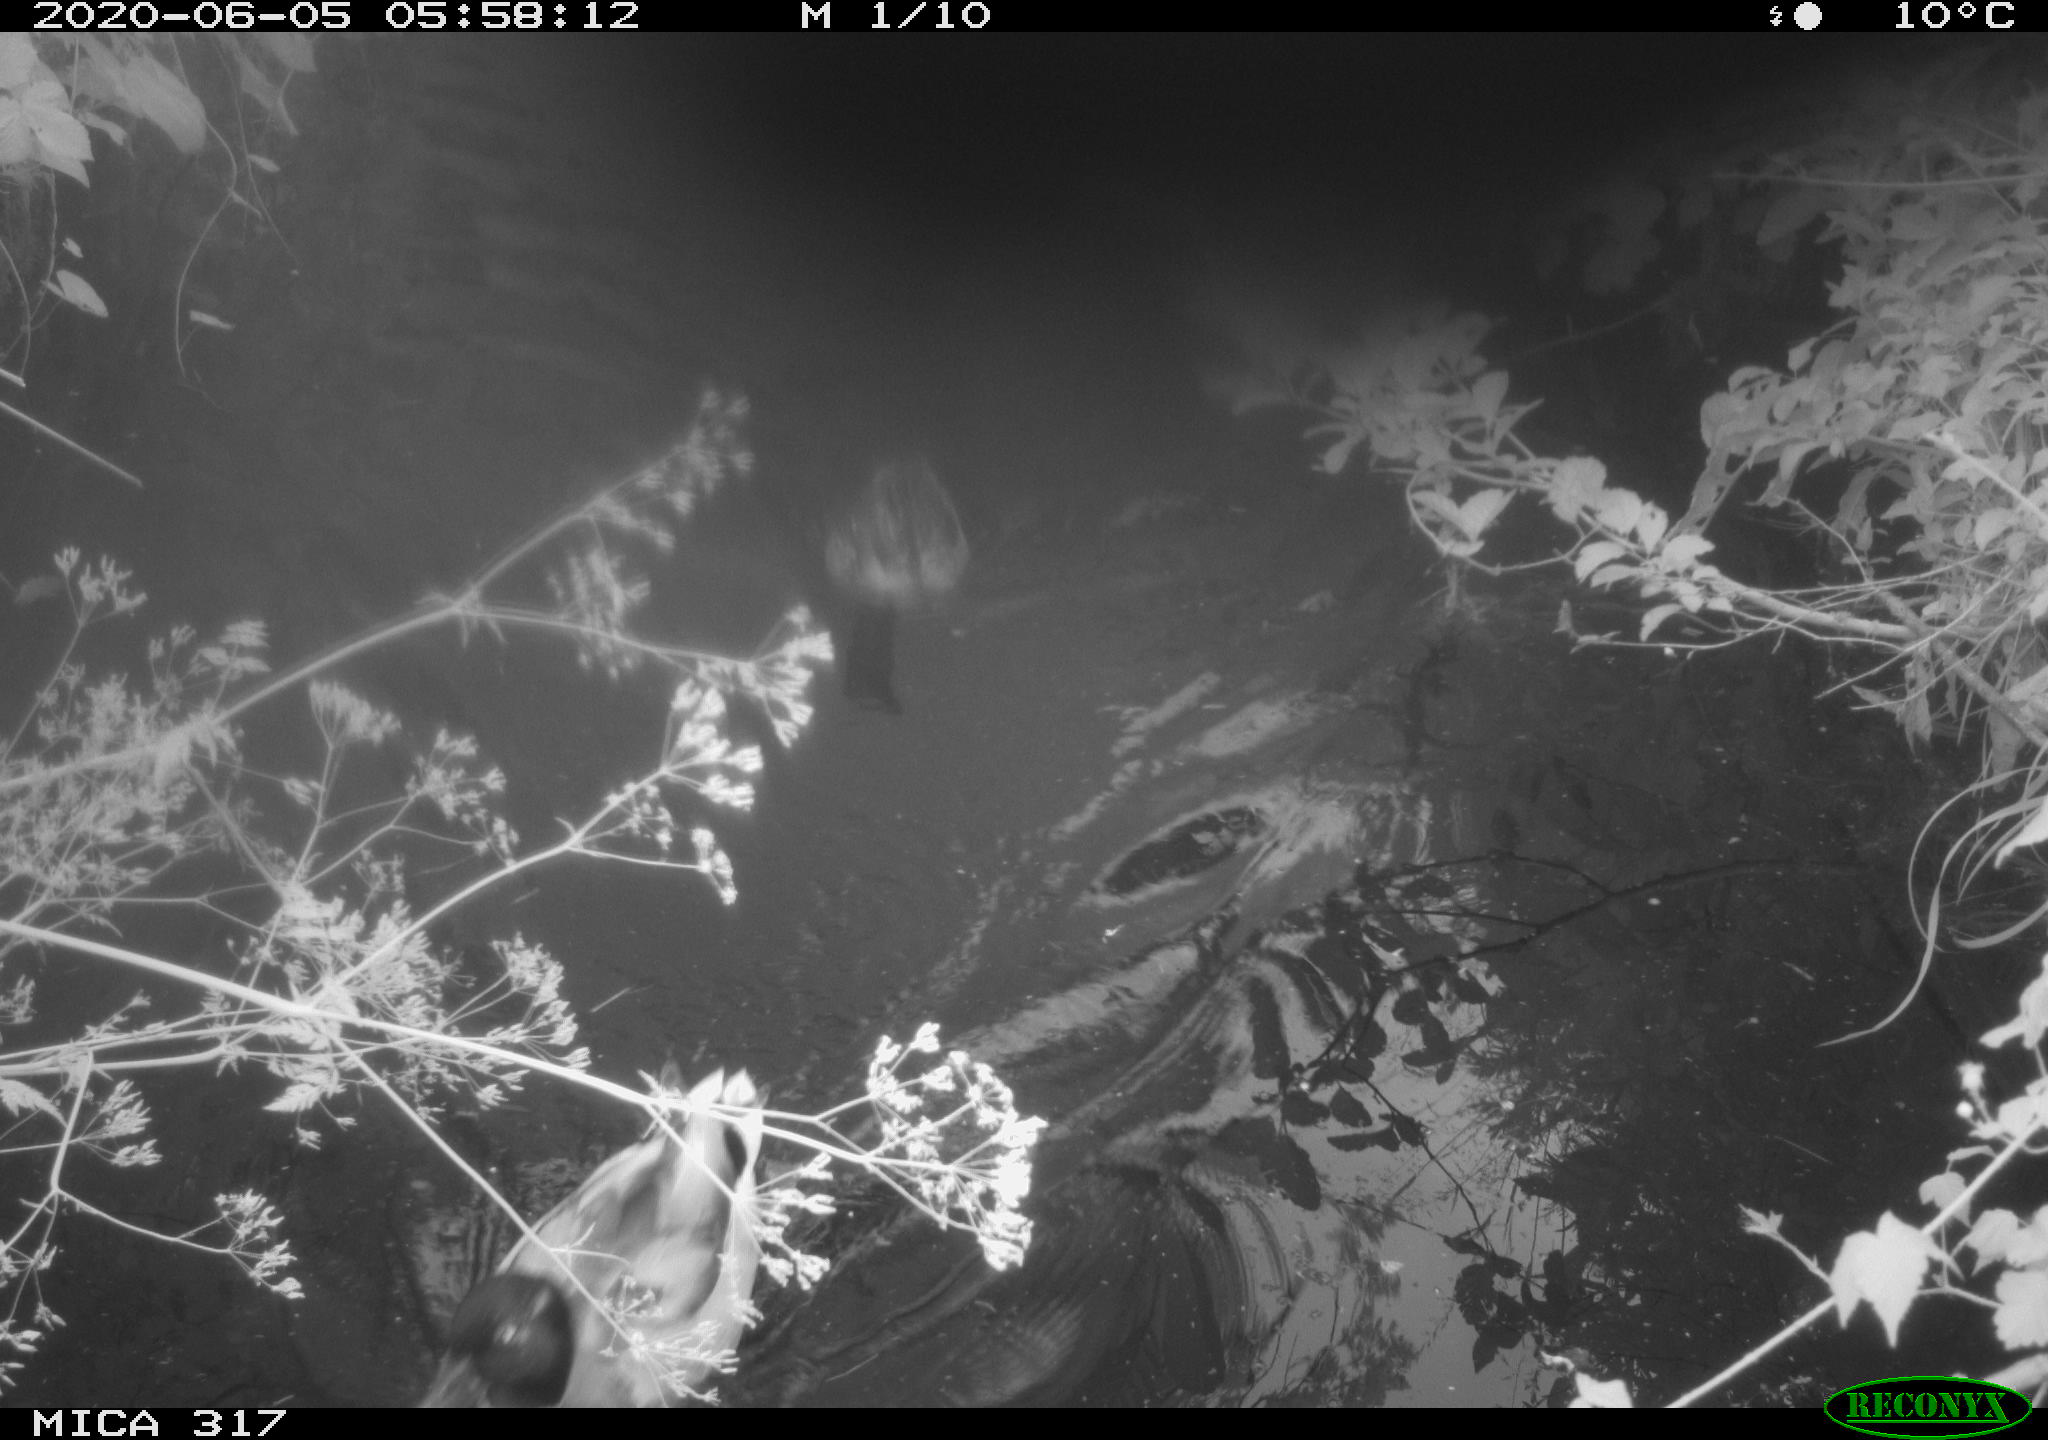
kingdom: Animalia
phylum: Chordata
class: Aves
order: Anseriformes
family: Anatidae
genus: Anas
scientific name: Anas platyrhynchos
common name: Mallard
